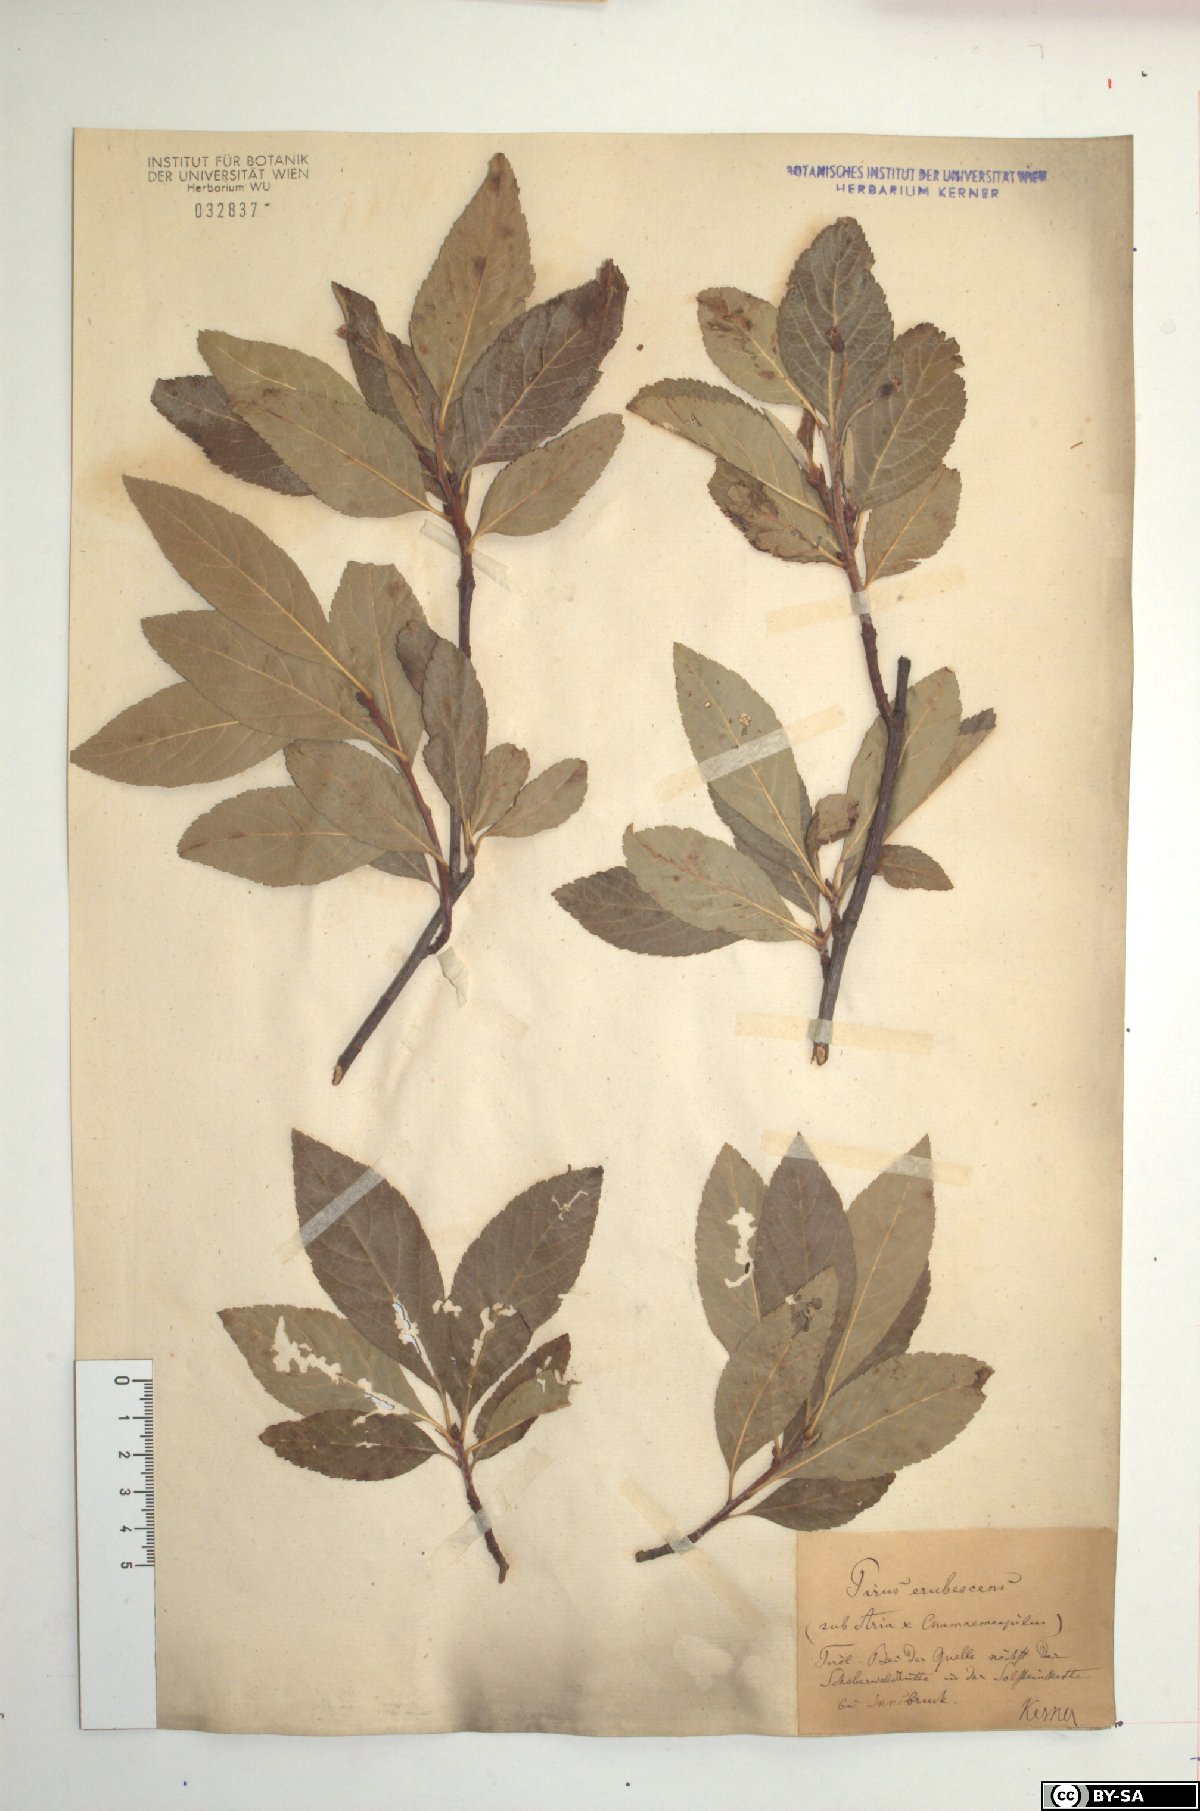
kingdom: Plantae
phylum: Tracheophyta
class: Magnoliopsida
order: Rosales
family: Rosaceae
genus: Majovskya
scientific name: Majovskya sudetica
